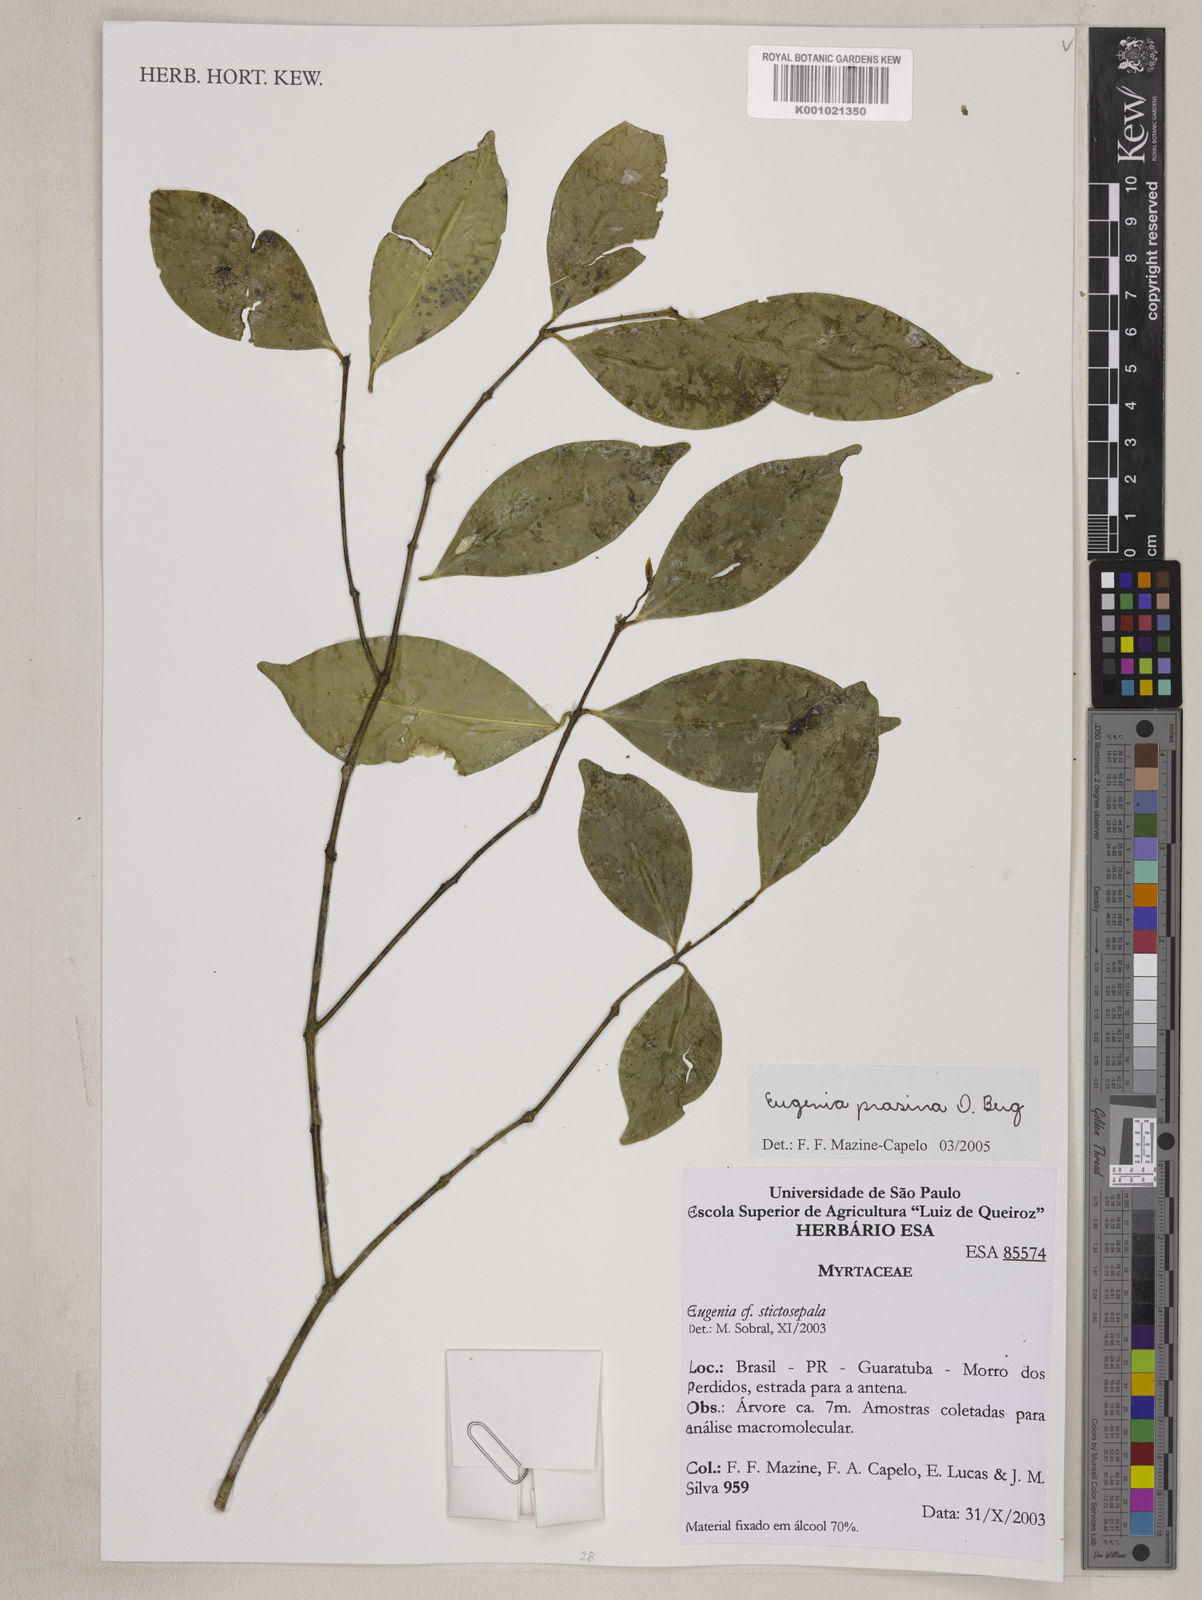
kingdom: Plantae
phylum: Tracheophyta
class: Magnoliopsida
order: Myrtales
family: Myrtaceae
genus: Eugenia
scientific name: Eugenia prasina
